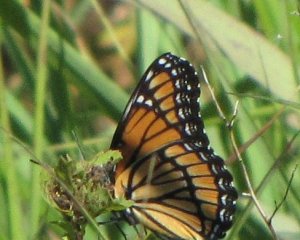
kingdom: Animalia
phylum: Arthropoda
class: Insecta
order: Lepidoptera
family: Nymphalidae
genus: Limenitis
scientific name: Limenitis archippus
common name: Viceroy
